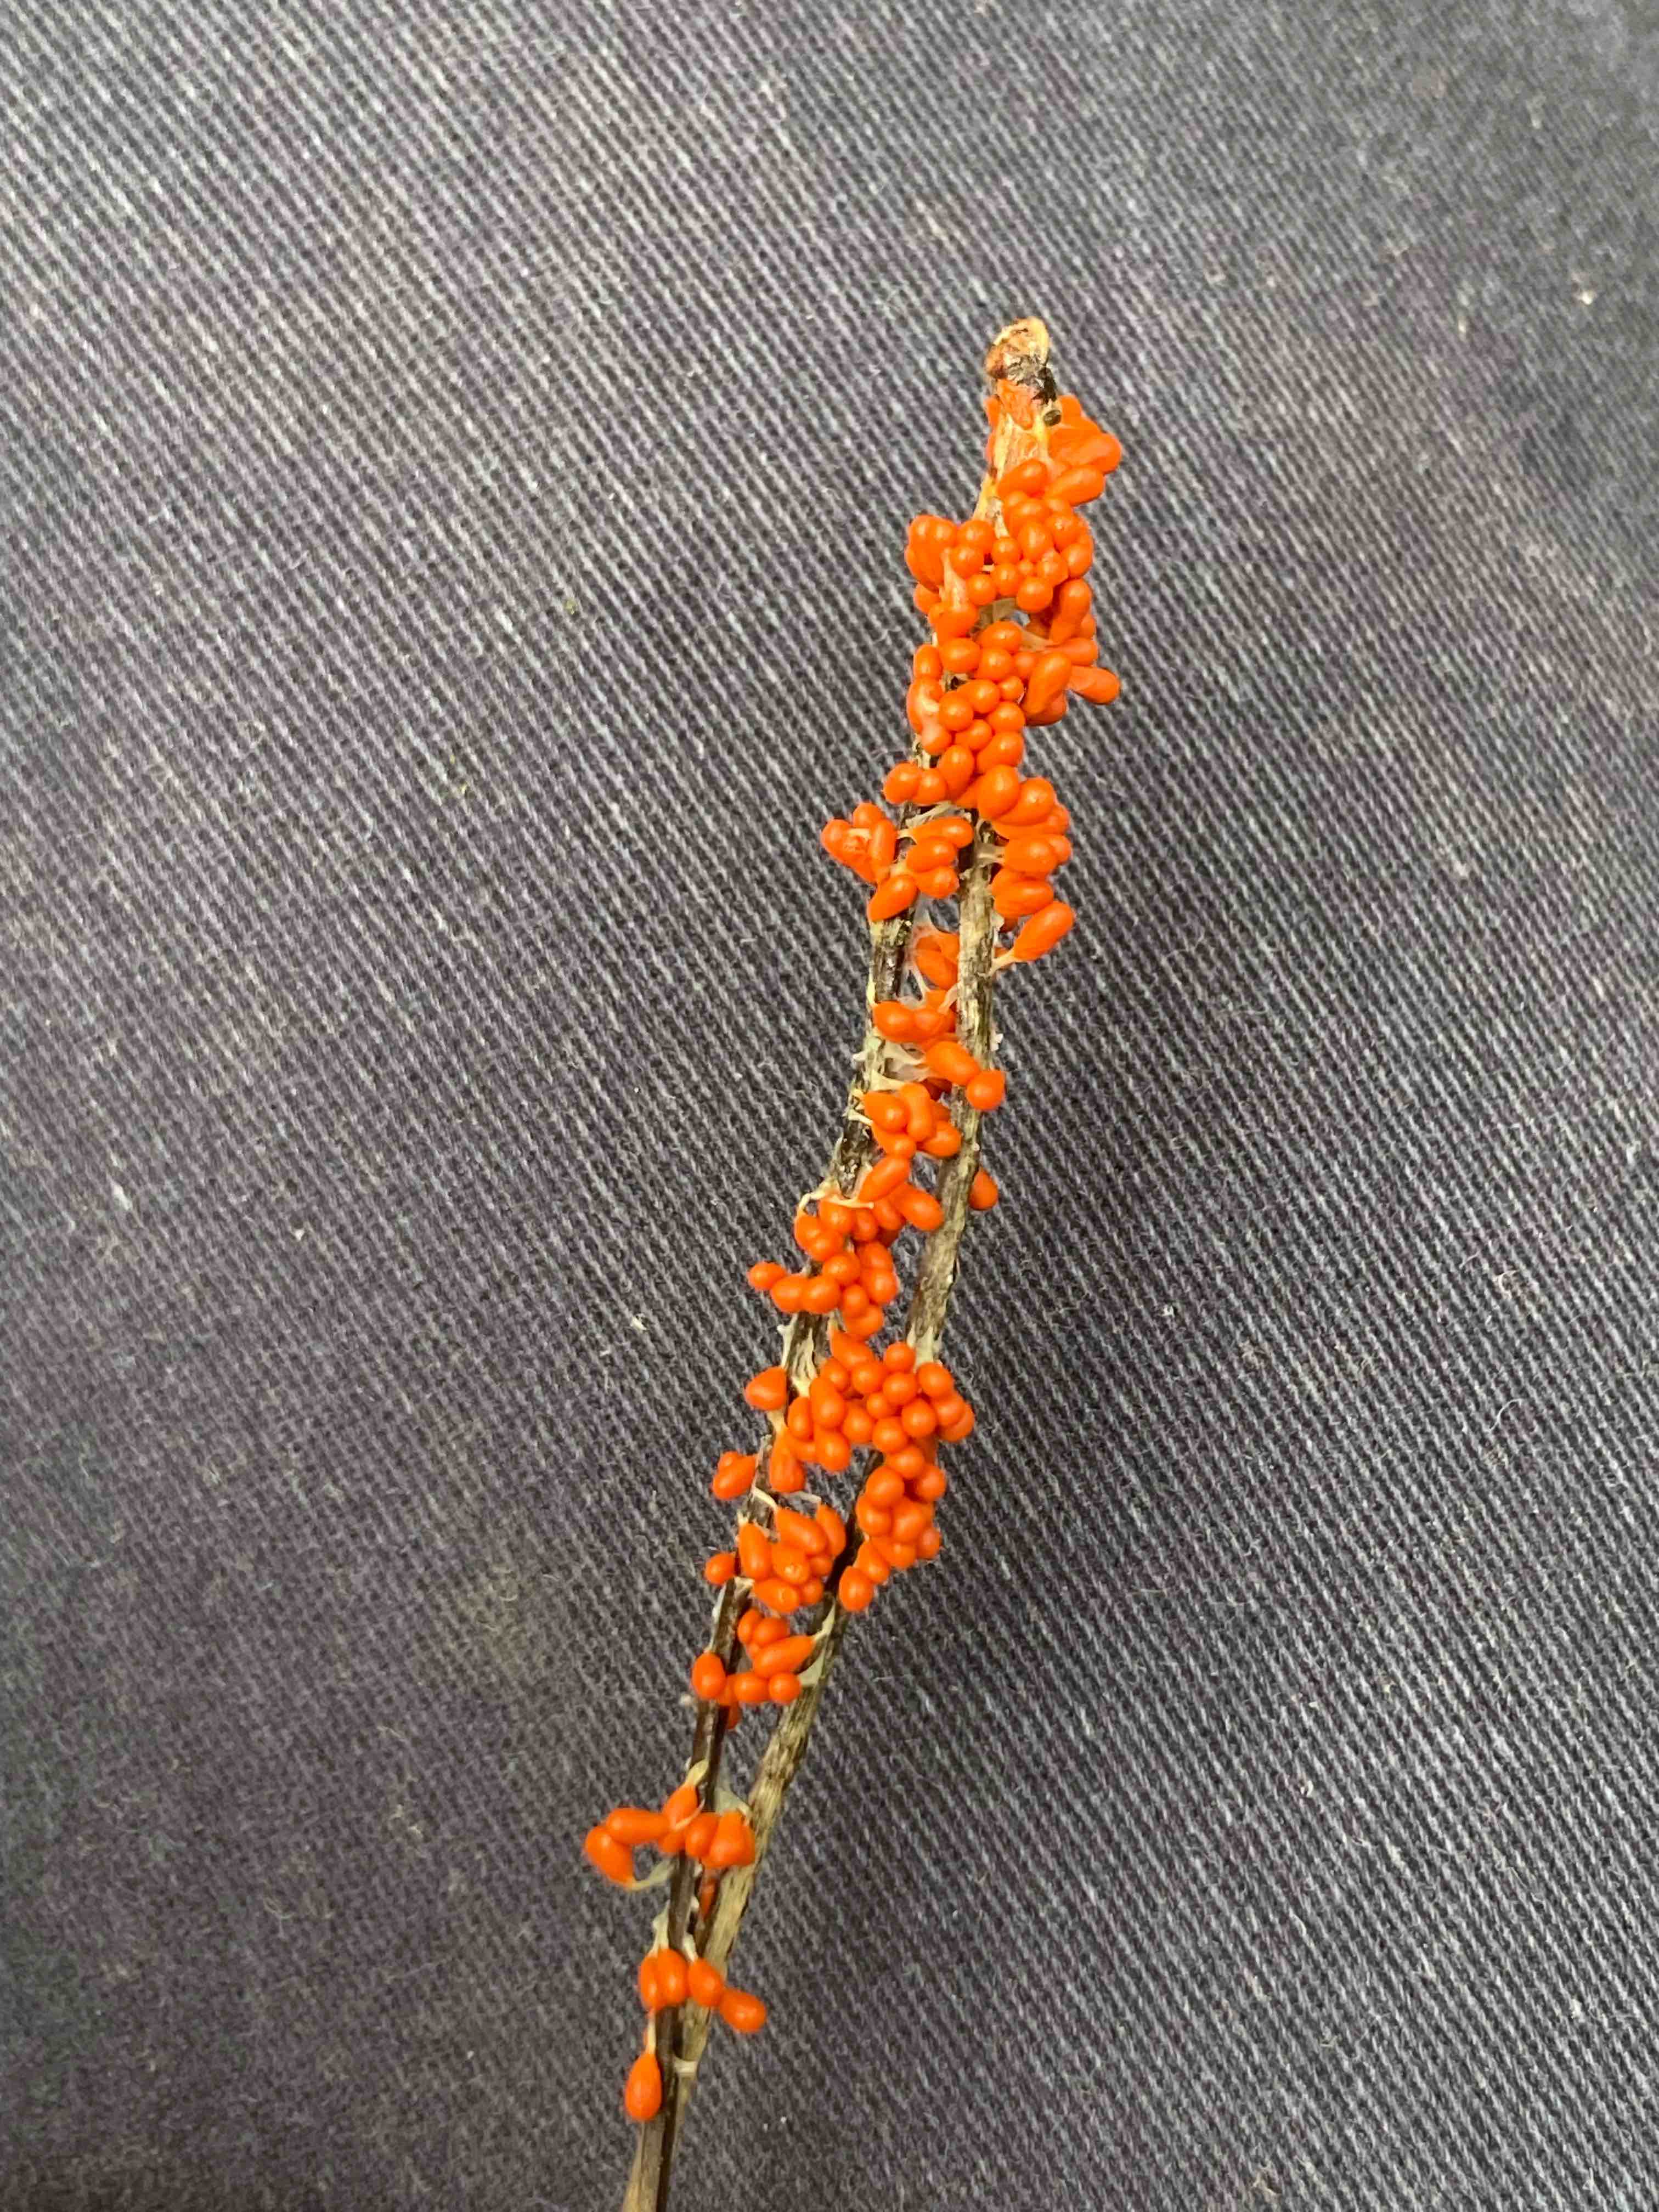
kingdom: Protozoa
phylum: Mycetozoa
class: Myxomycetes
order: Physarales
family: Physaraceae
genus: Leocarpus
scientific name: Leocarpus fragilis
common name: poleret glatfrø
